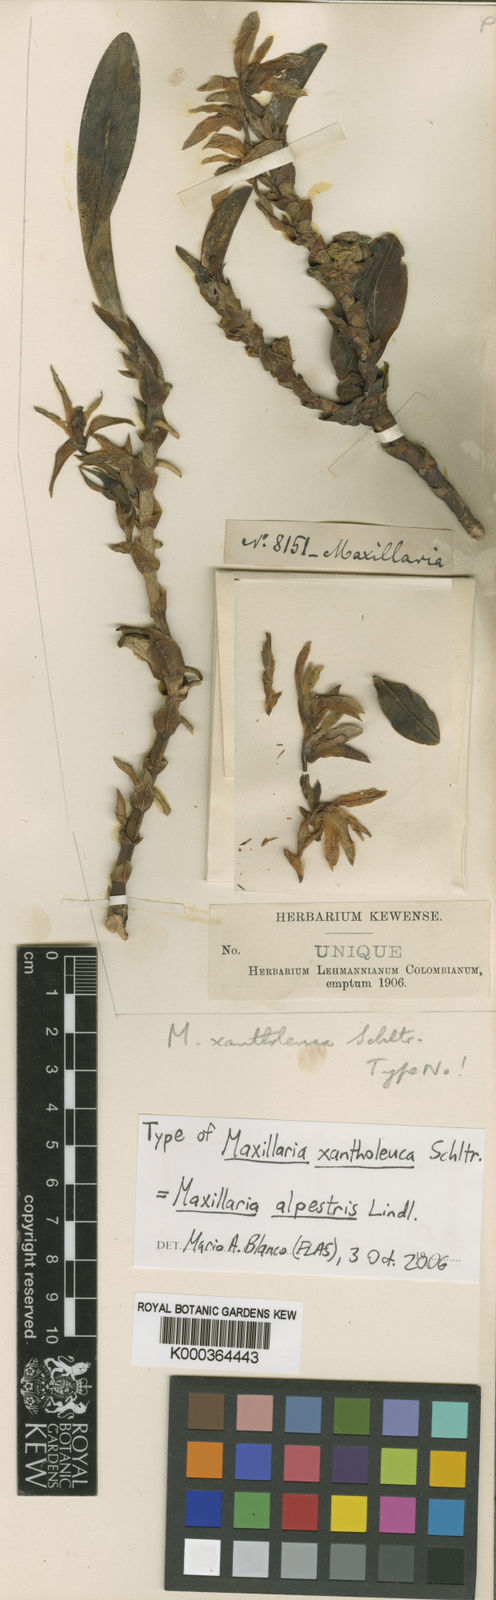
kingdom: Plantae
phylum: Tracheophyta
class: Liliopsida
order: Asparagales
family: Orchidaceae
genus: Maxillaria
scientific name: Maxillaria xantholeuca
